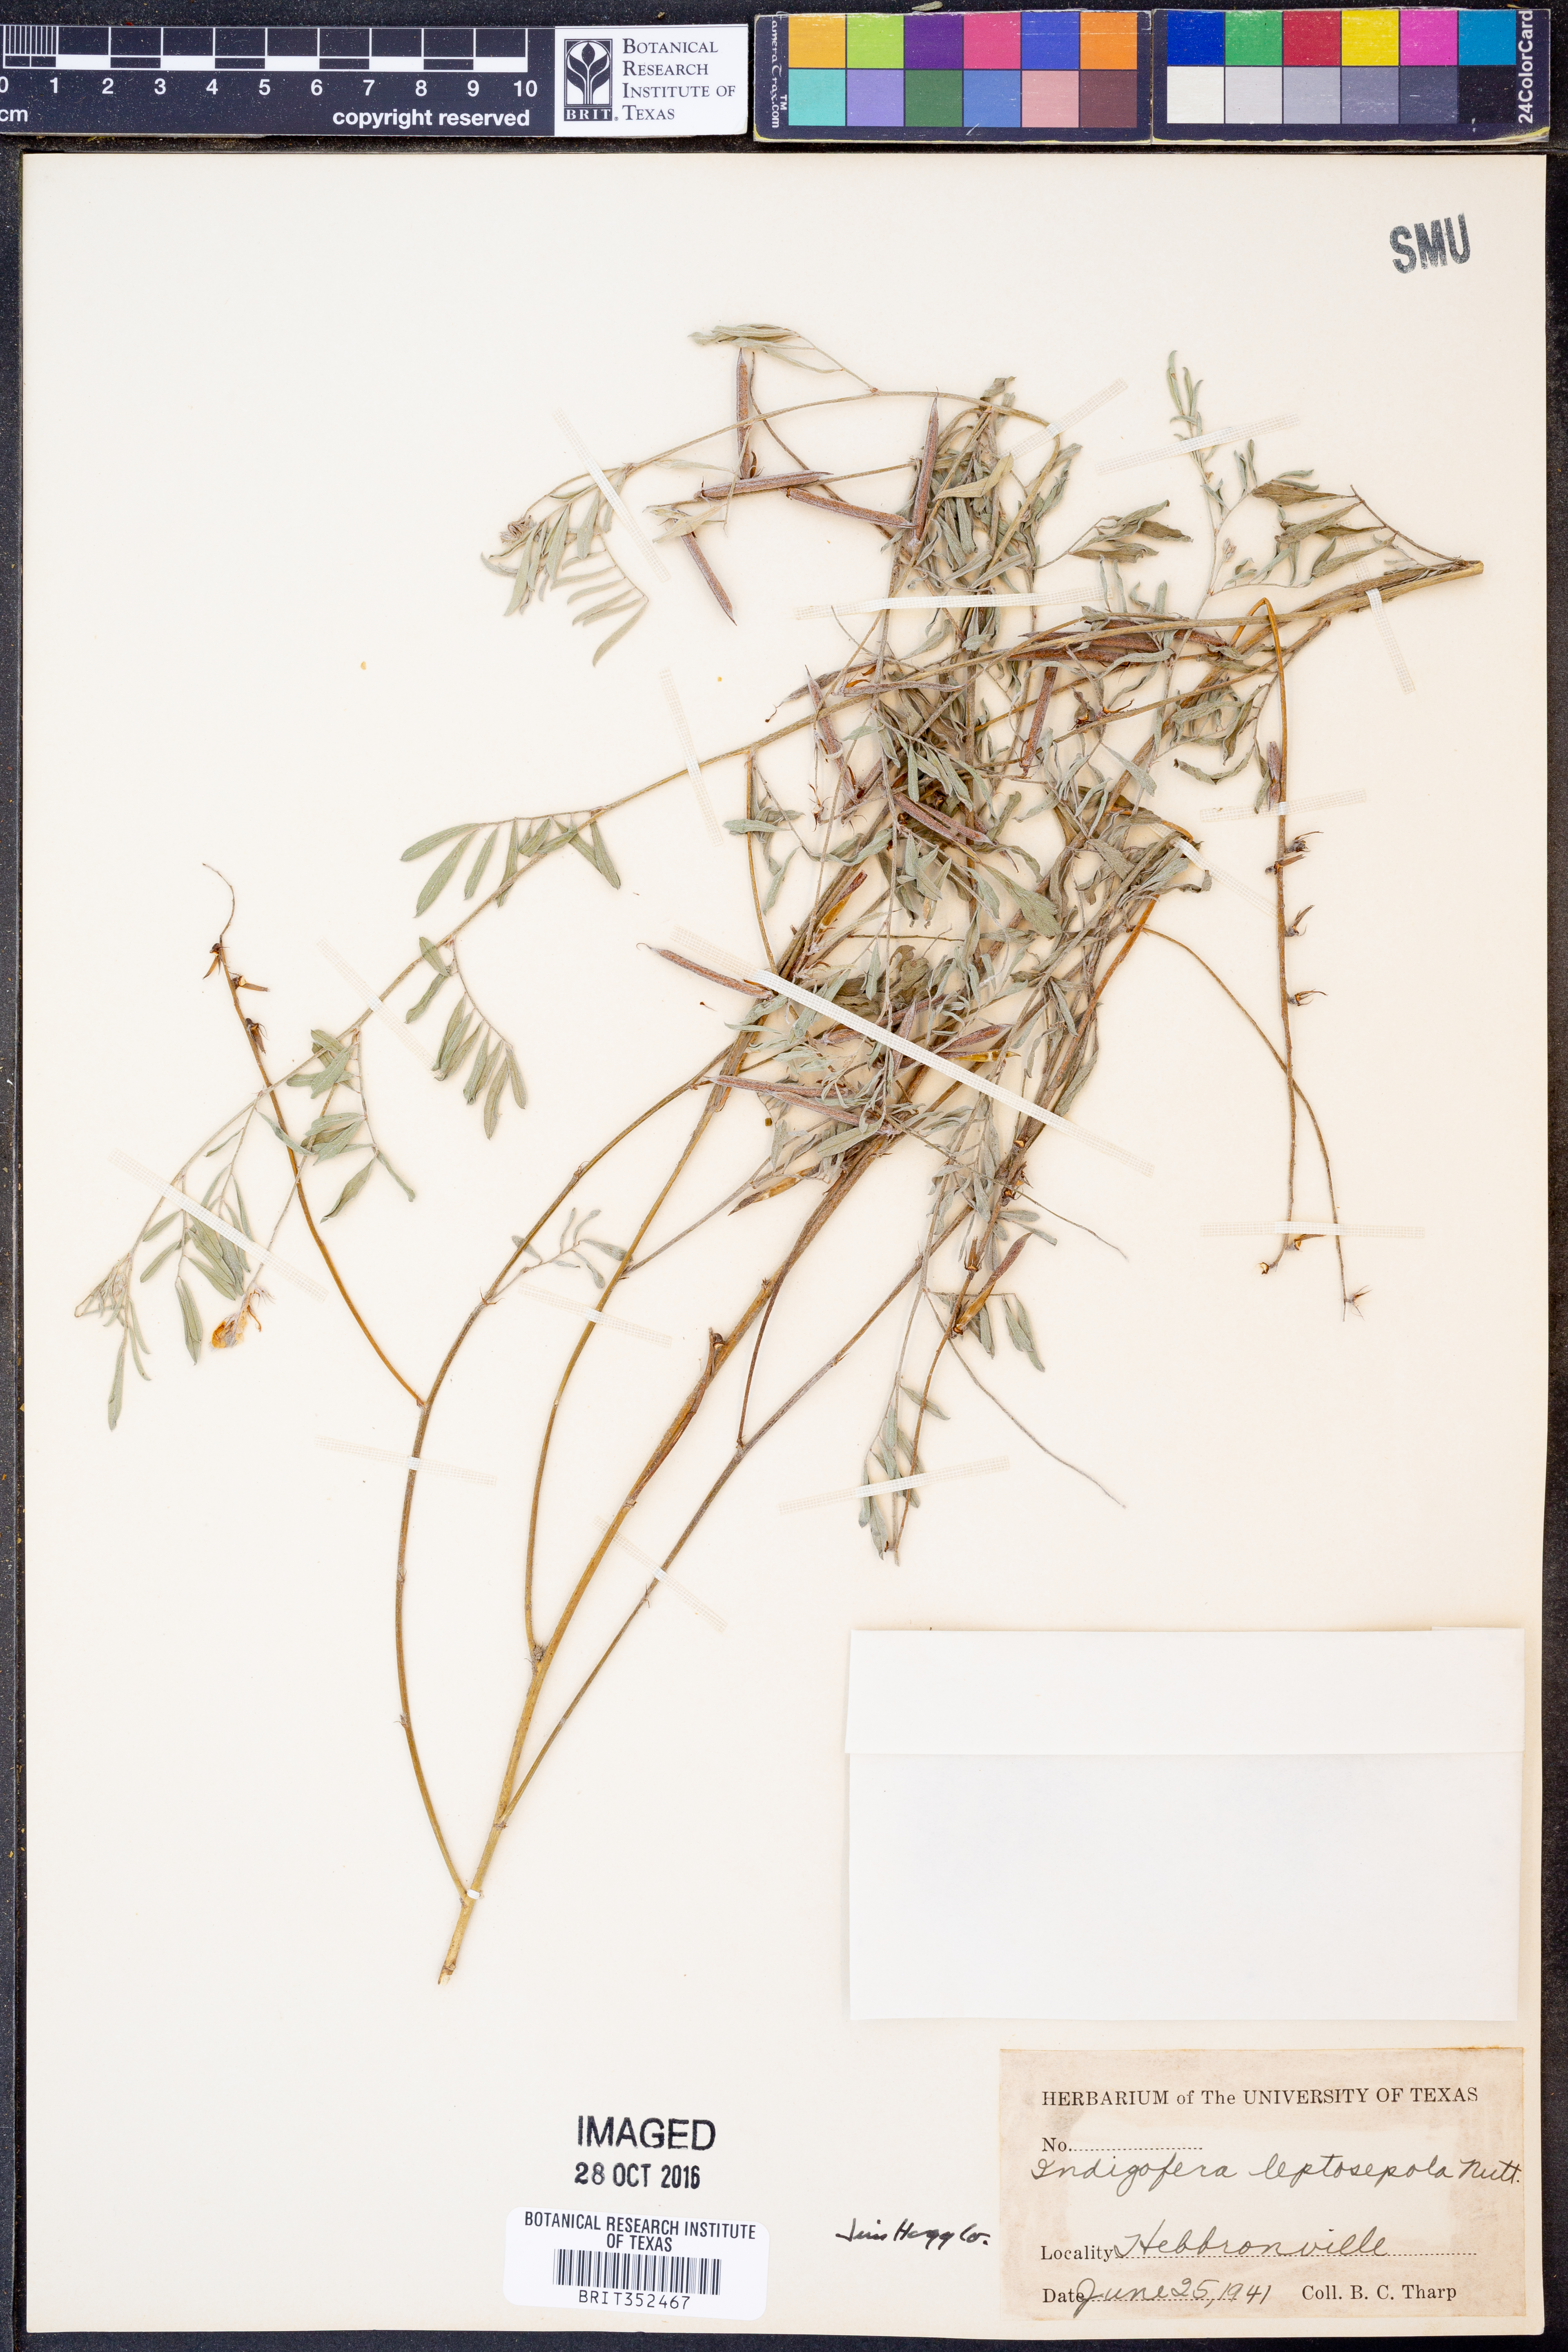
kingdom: Plantae
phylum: Tracheophyta
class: Magnoliopsida
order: Fabales
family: Fabaceae
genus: Indigofera
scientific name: Indigofera argutidens
